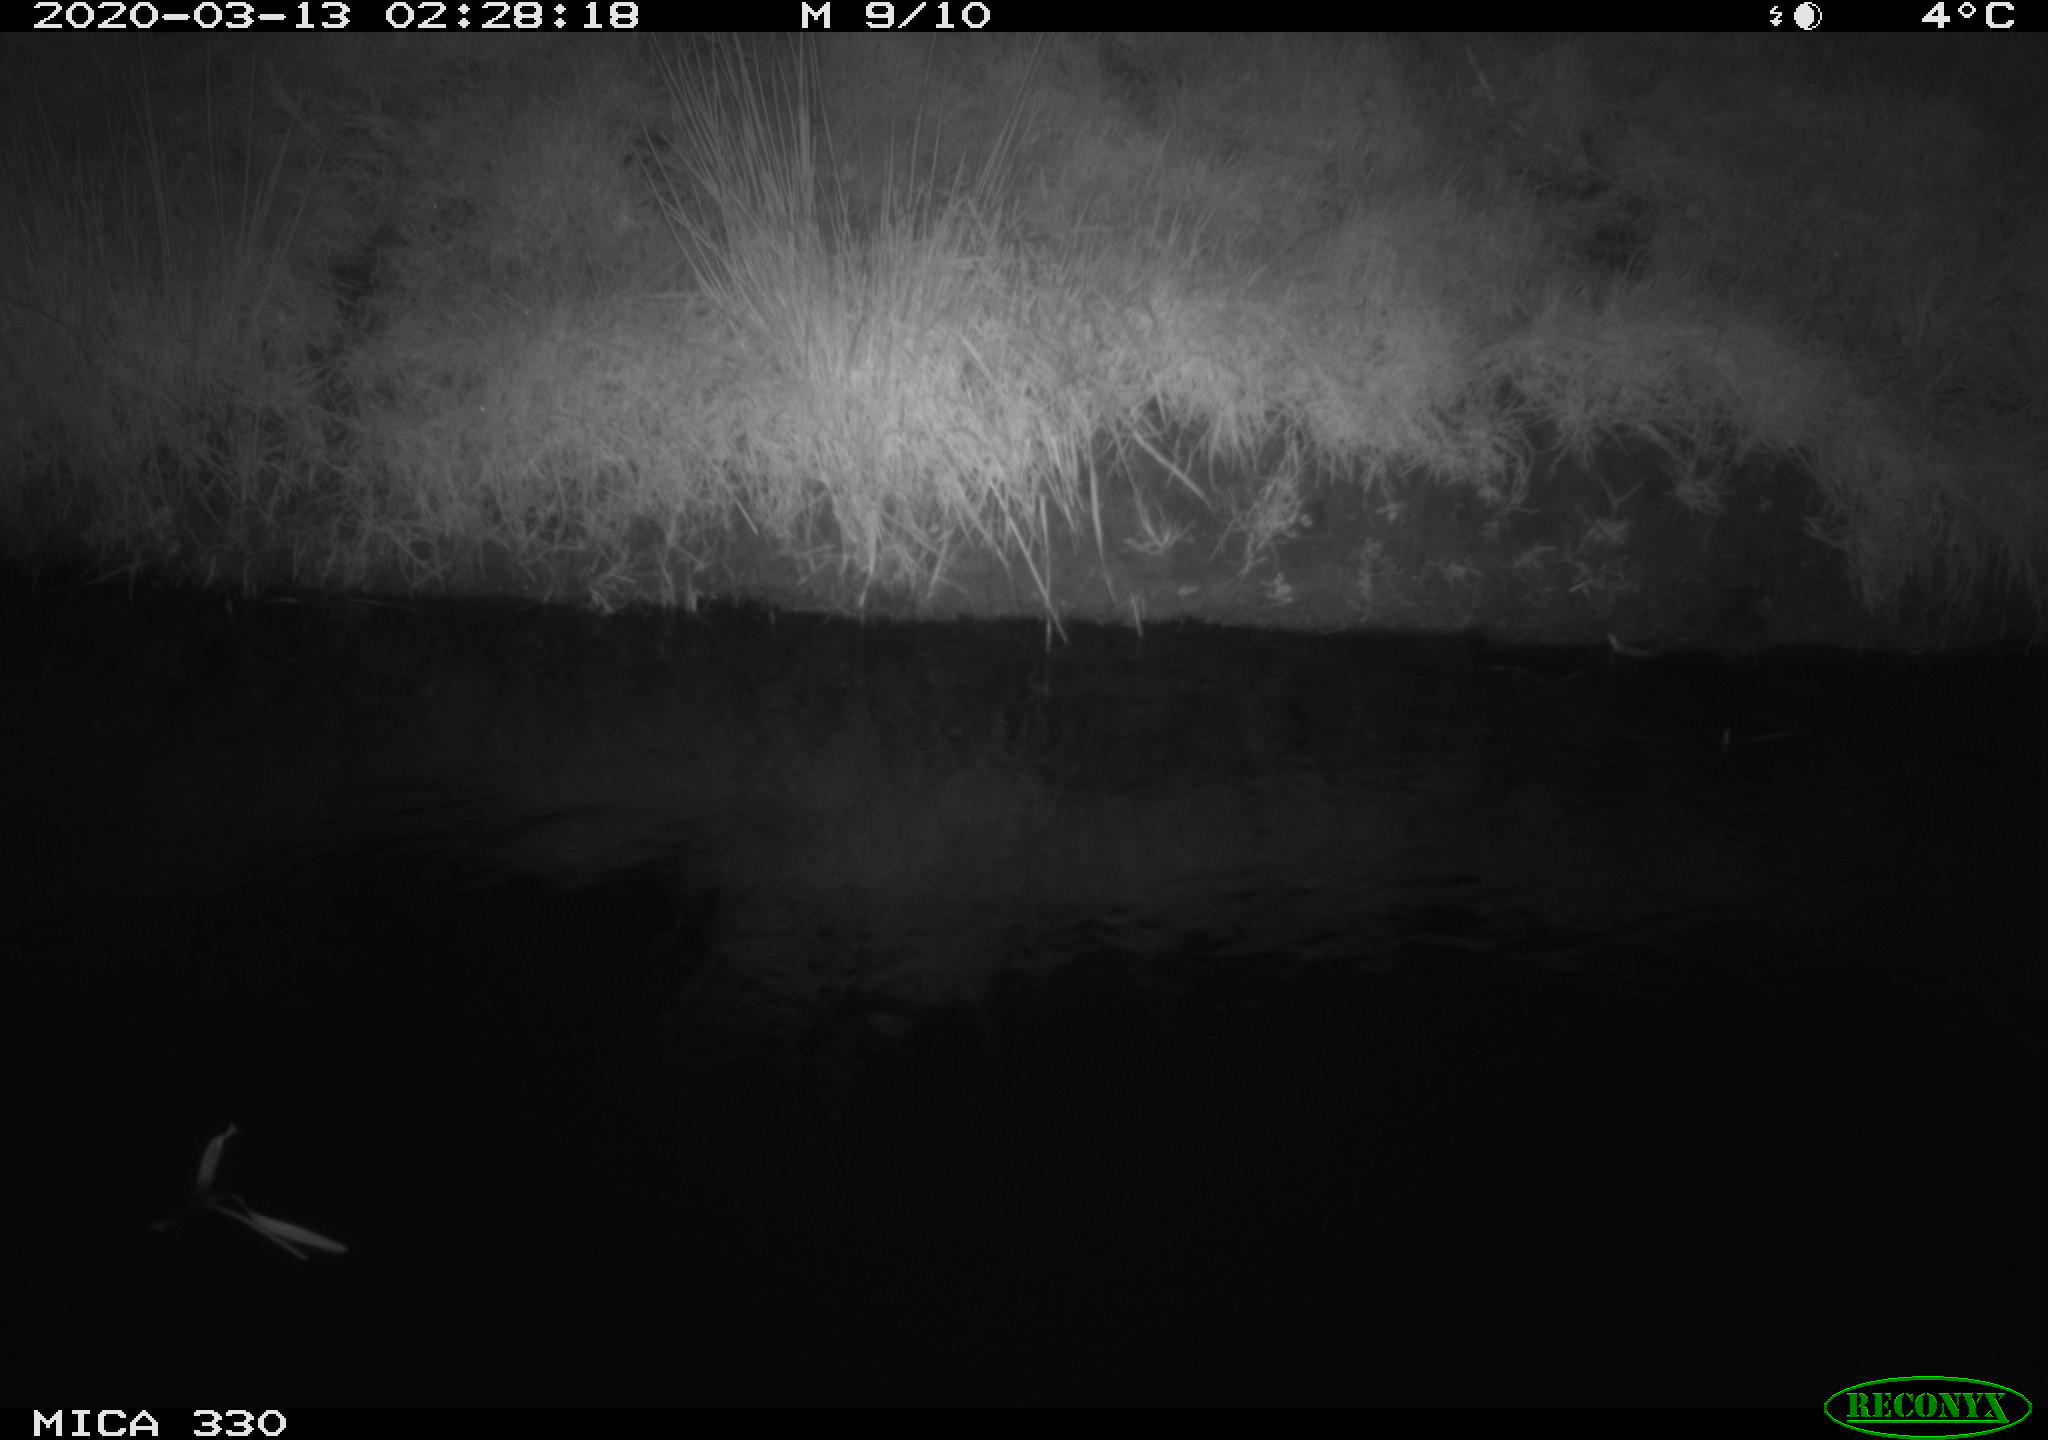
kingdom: Animalia
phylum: Chordata
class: Aves
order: Anseriformes
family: Anatidae
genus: Anas
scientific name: Anas platyrhynchos
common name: Mallard
